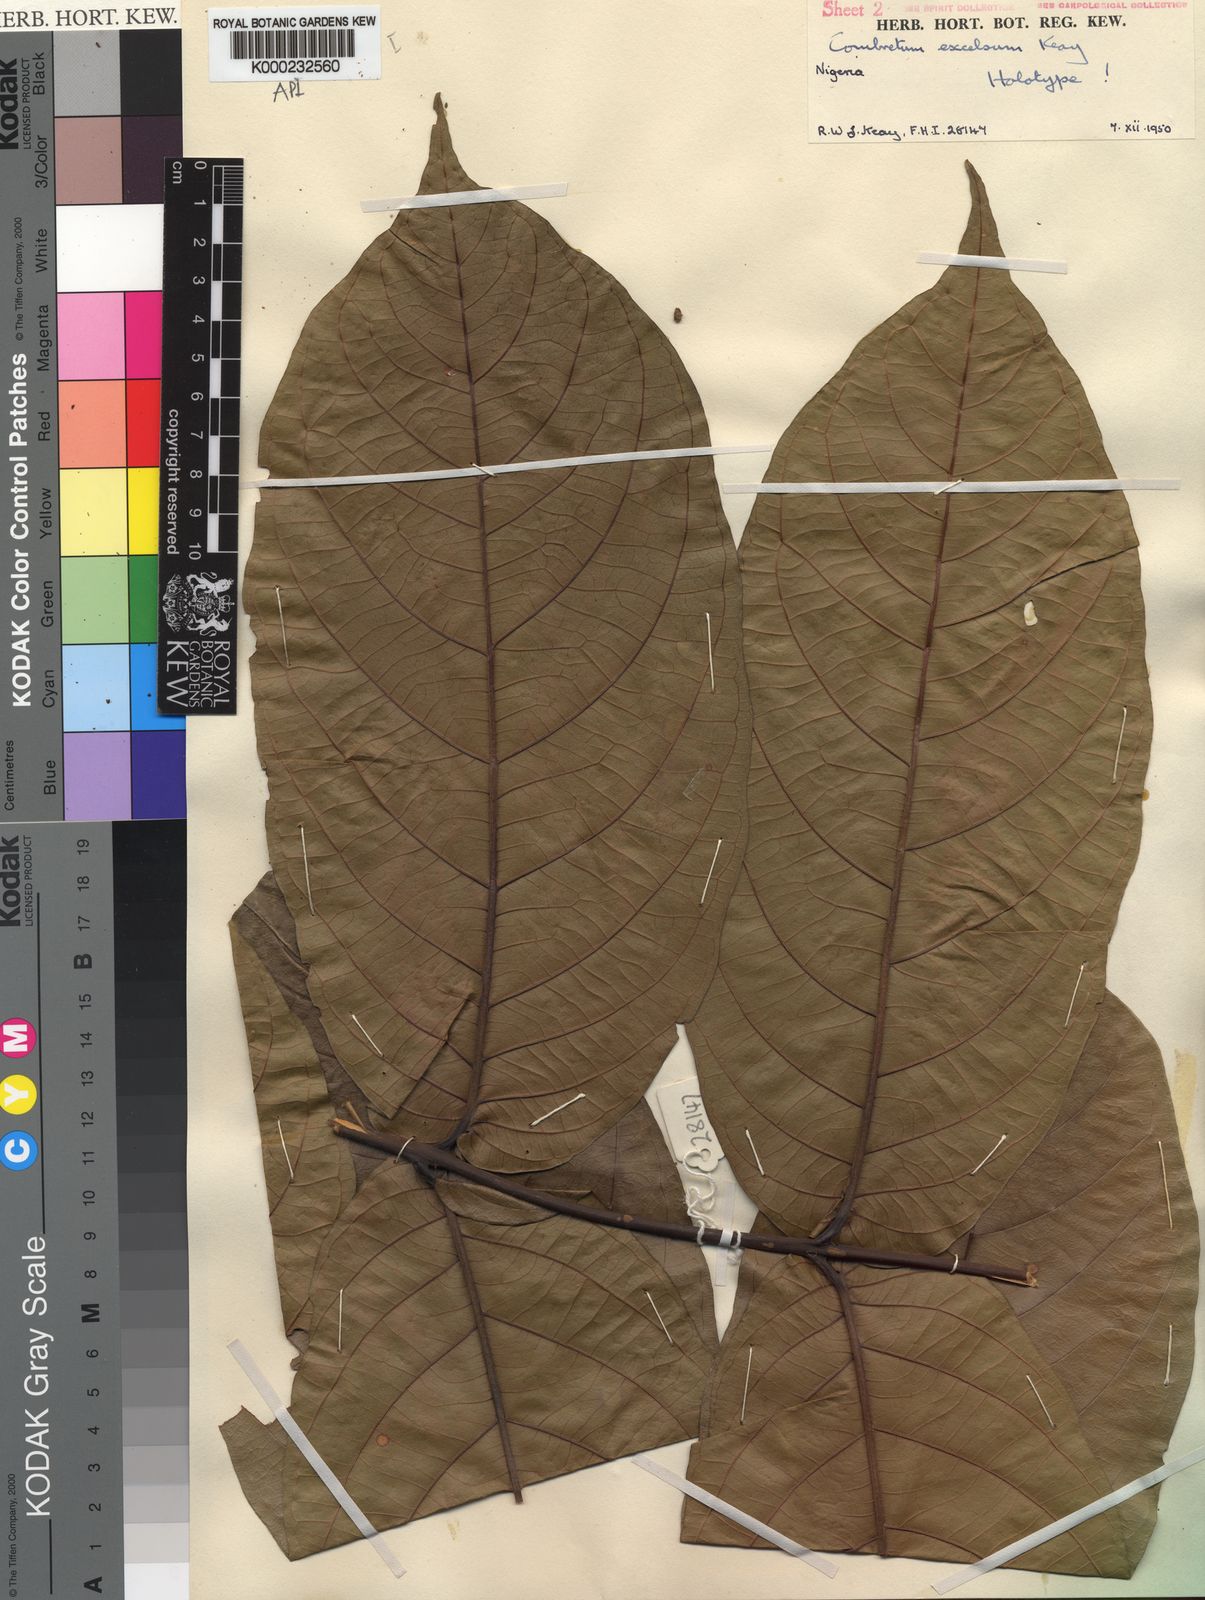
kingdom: Plantae
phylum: Tracheophyta
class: Magnoliopsida
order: Myrtales
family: Combretaceae
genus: Combretum
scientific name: Combretum pecoense
